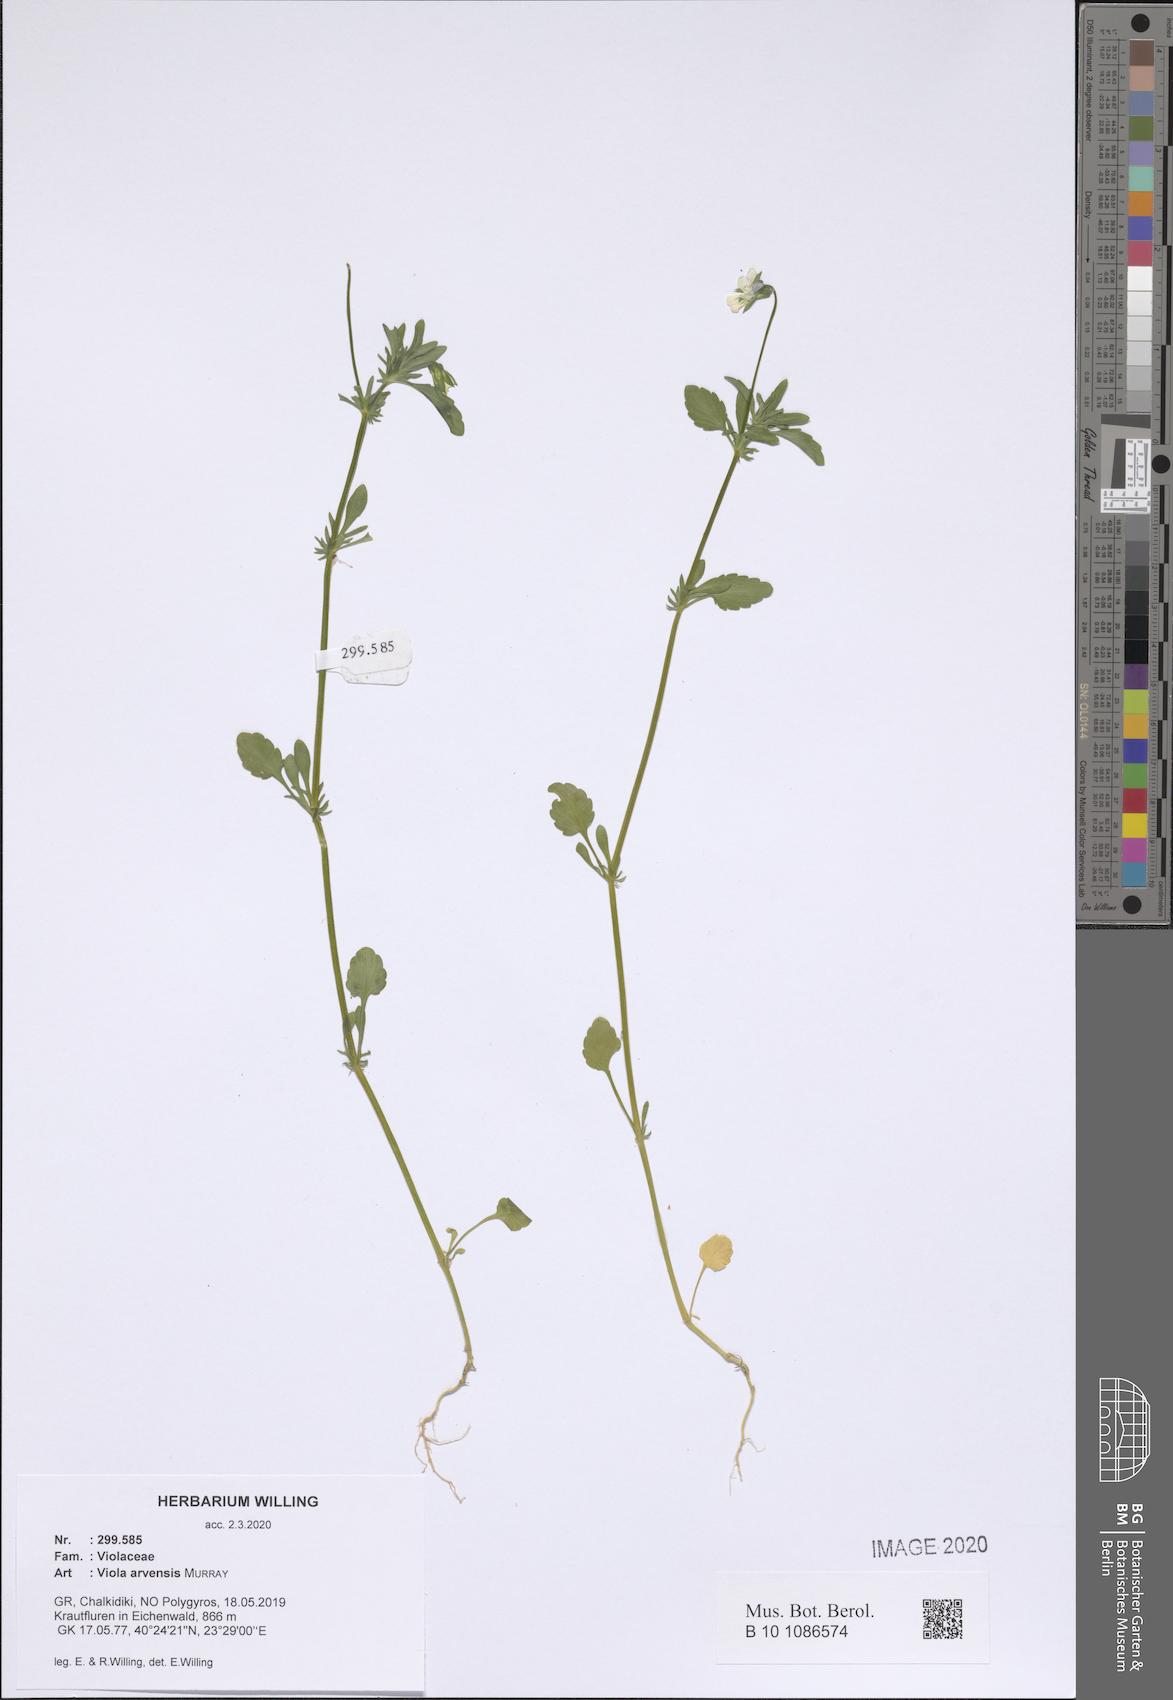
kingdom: Plantae
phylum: Tracheophyta
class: Magnoliopsida
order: Malpighiales
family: Violaceae
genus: Viola
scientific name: Viola arvensis
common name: Field pansy
